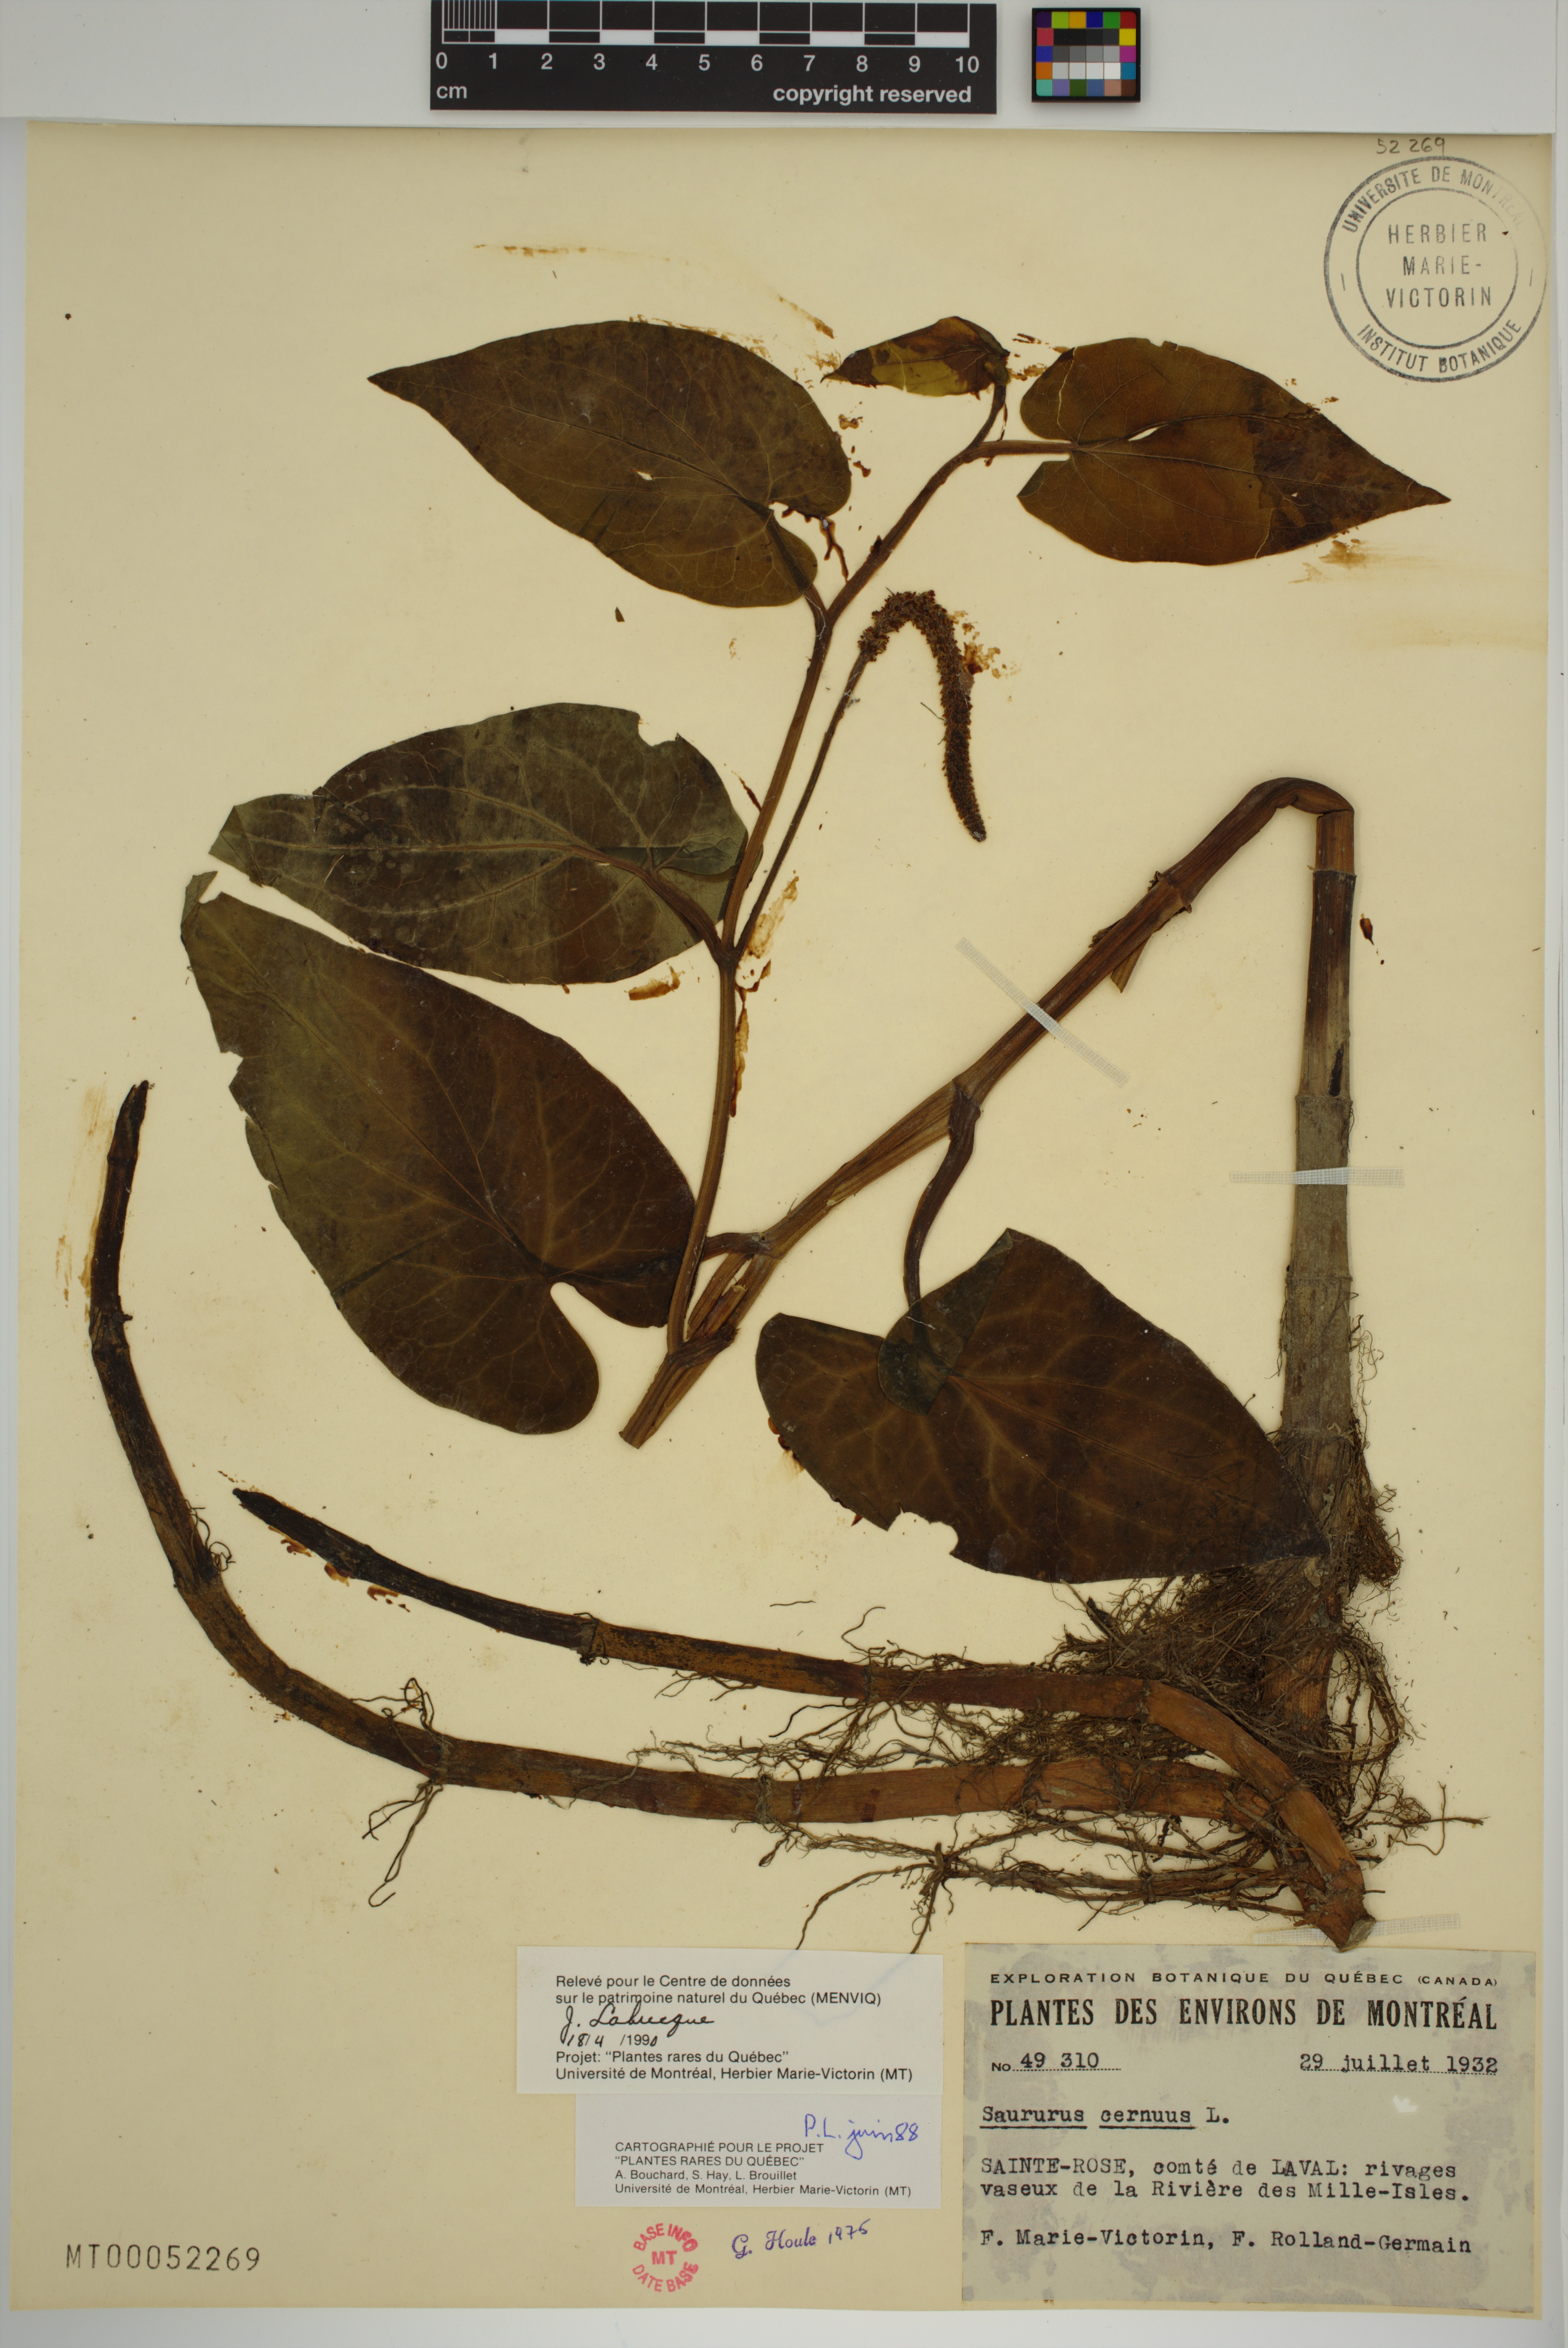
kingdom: Plantae
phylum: Tracheophyta
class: Magnoliopsida
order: Piperales
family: Saururaceae
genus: Saururus
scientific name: Saururus cernuus
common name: Lizard's-tail
